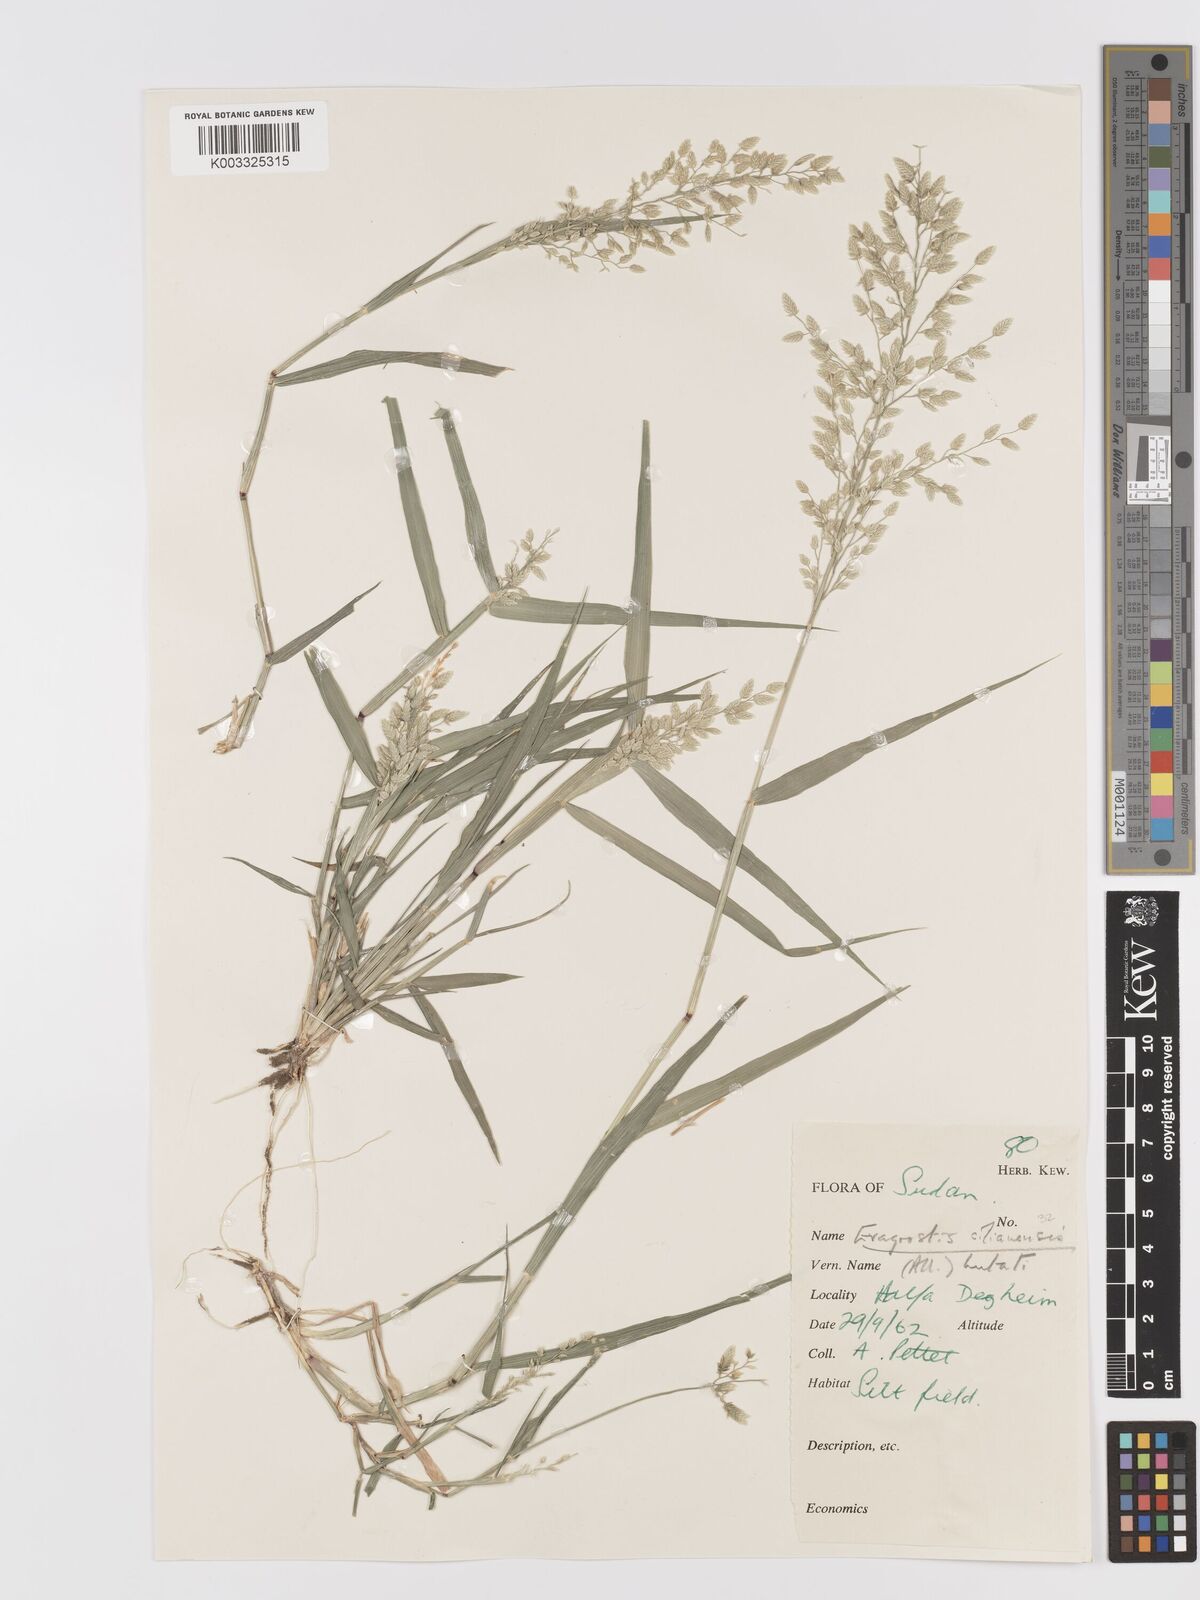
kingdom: Plantae
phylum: Tracheophyta
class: Liliopsida
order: Poales
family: Poaceae
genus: Eragrostis
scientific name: Eragrostis cilianensis
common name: Stinkgrass
